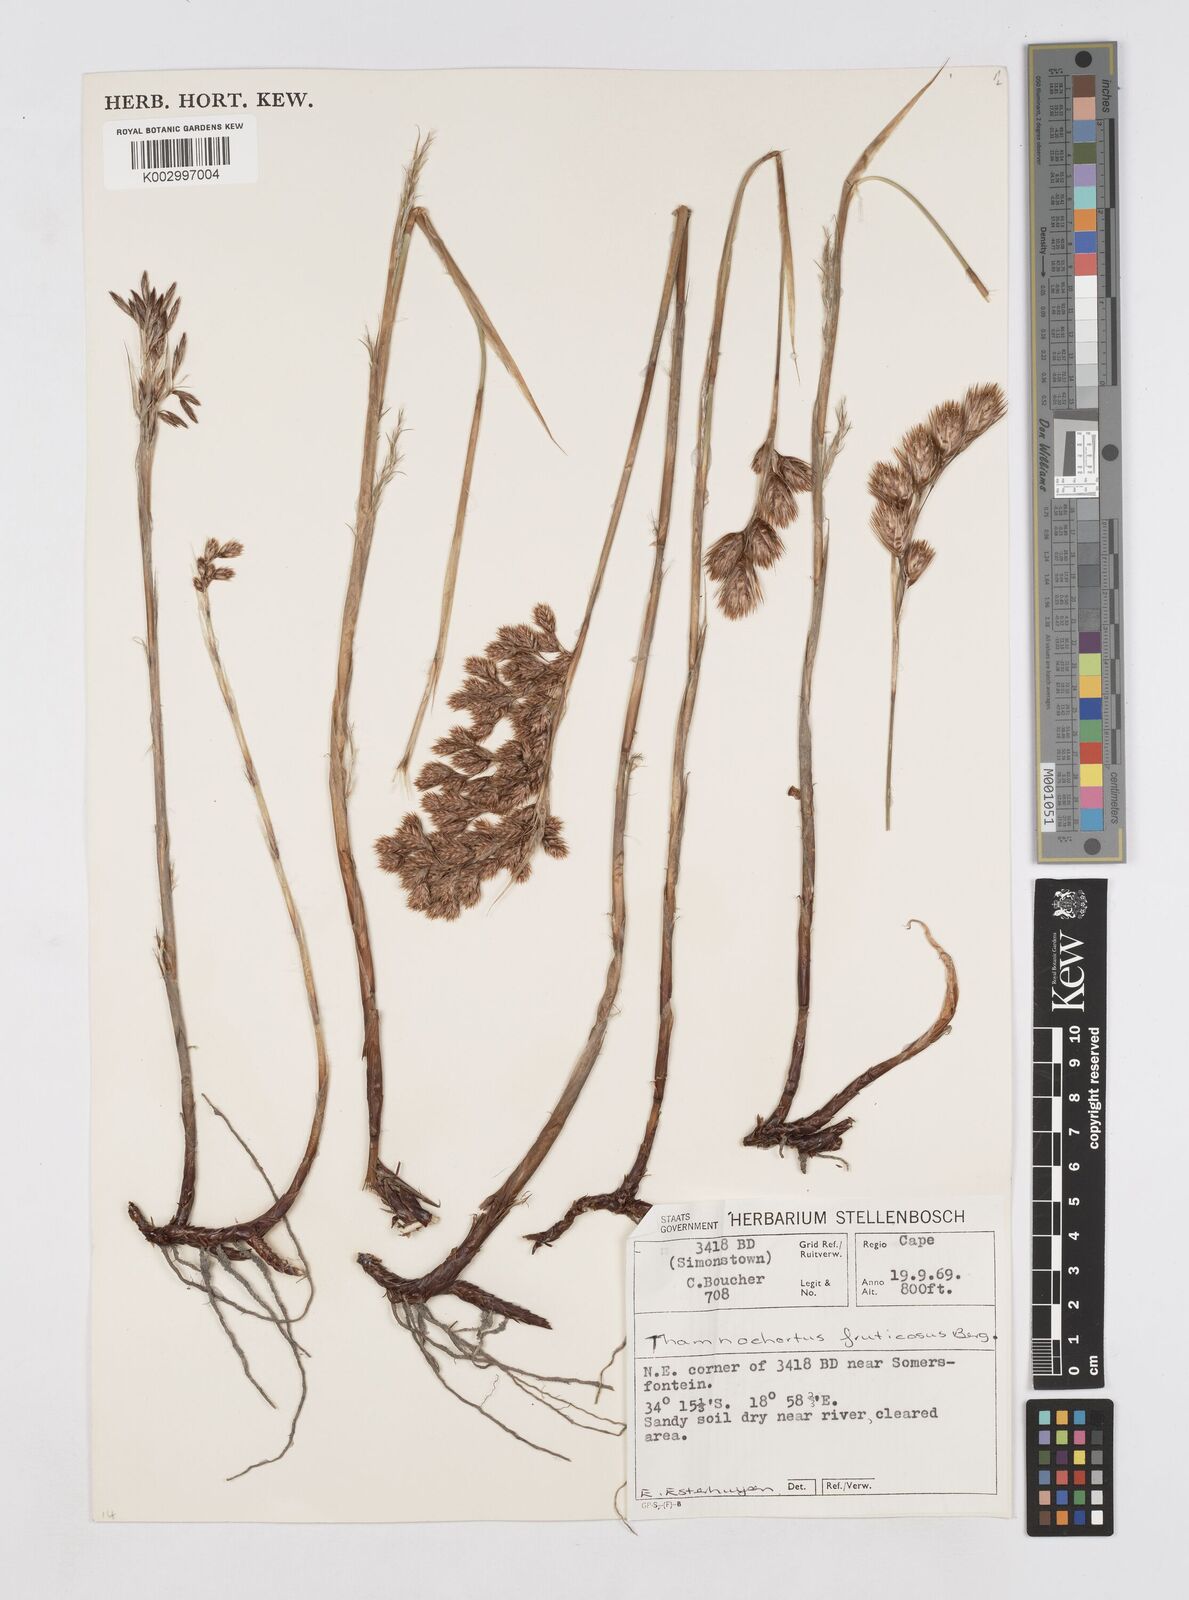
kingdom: Plantae
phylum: Tracheophyta
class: Liliopsida
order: Poales
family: Restionaceae
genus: Thamnochortus
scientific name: Thamnochortus fruticosus
